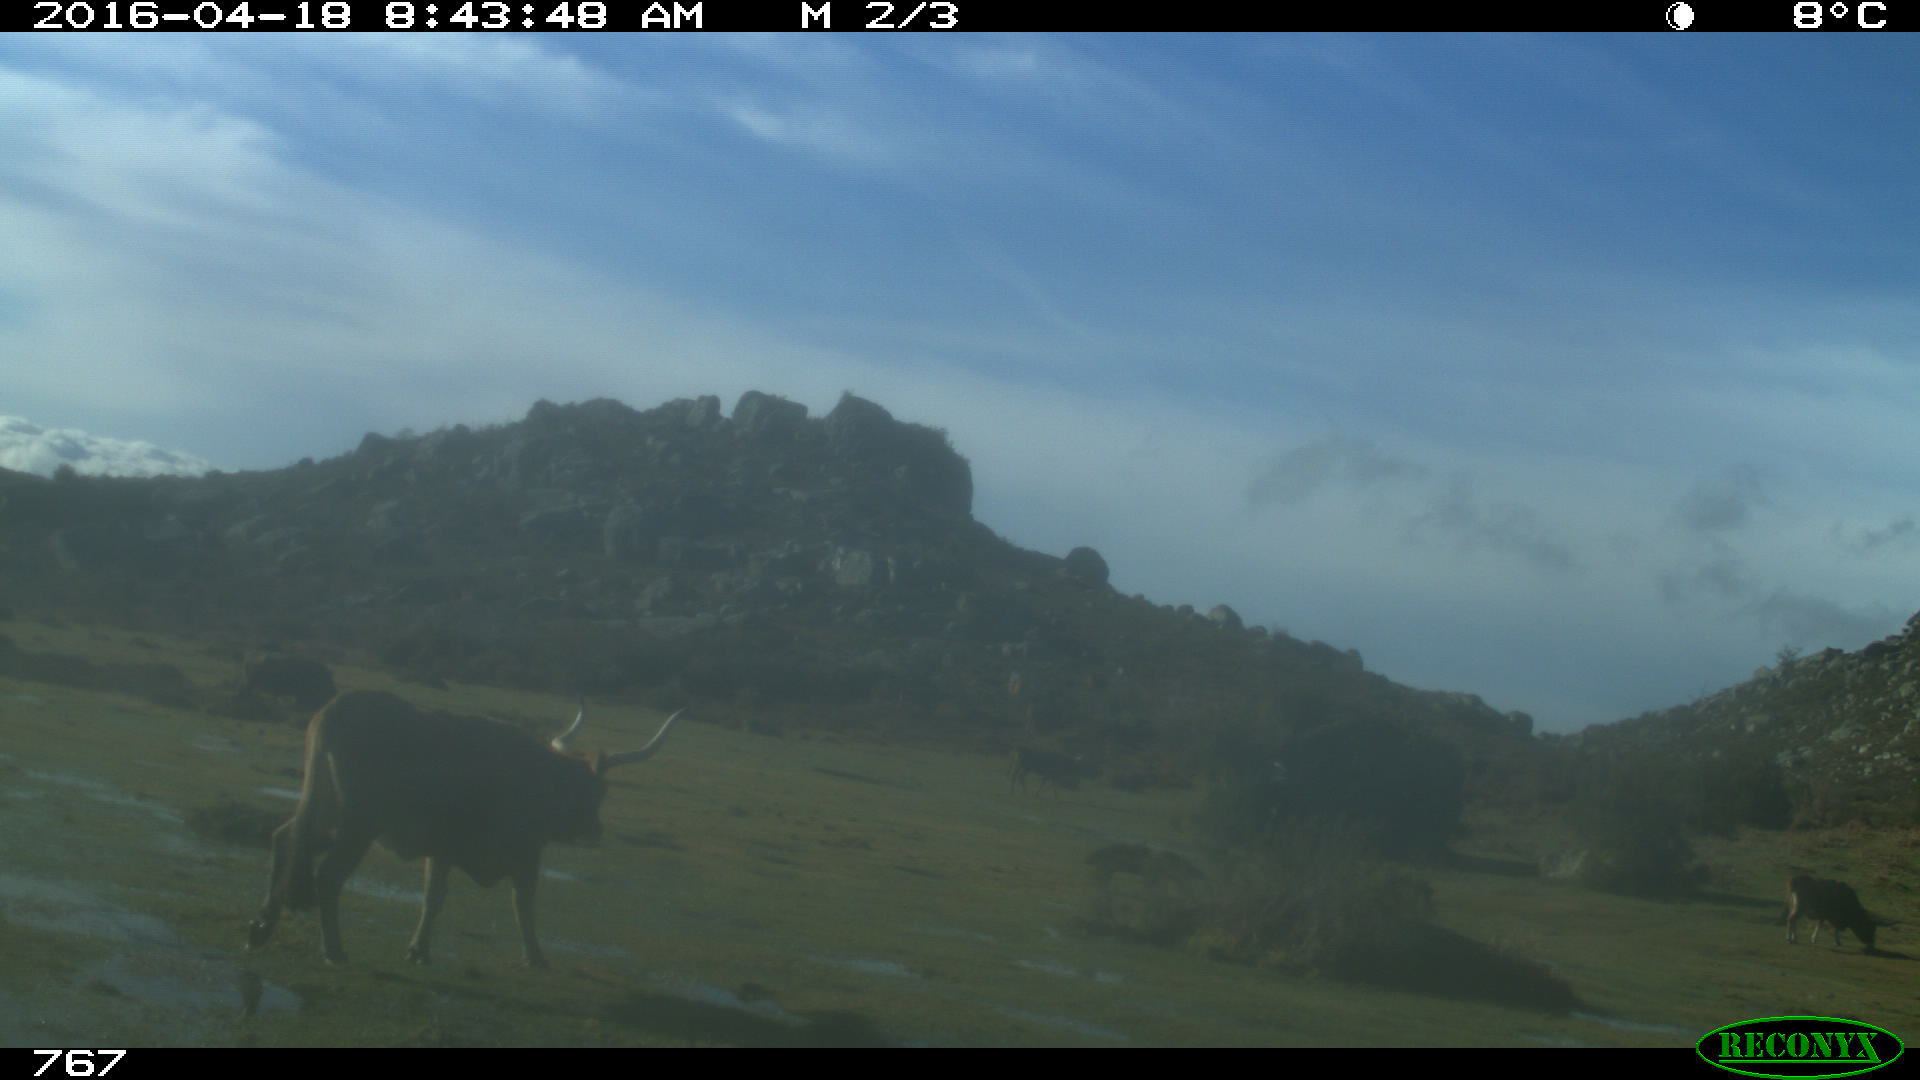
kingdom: Animalia
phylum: Chordata
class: Mammalia
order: Artiodactyla
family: Bovidae
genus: Bos
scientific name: Bos taurus
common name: Domesticated cattle
